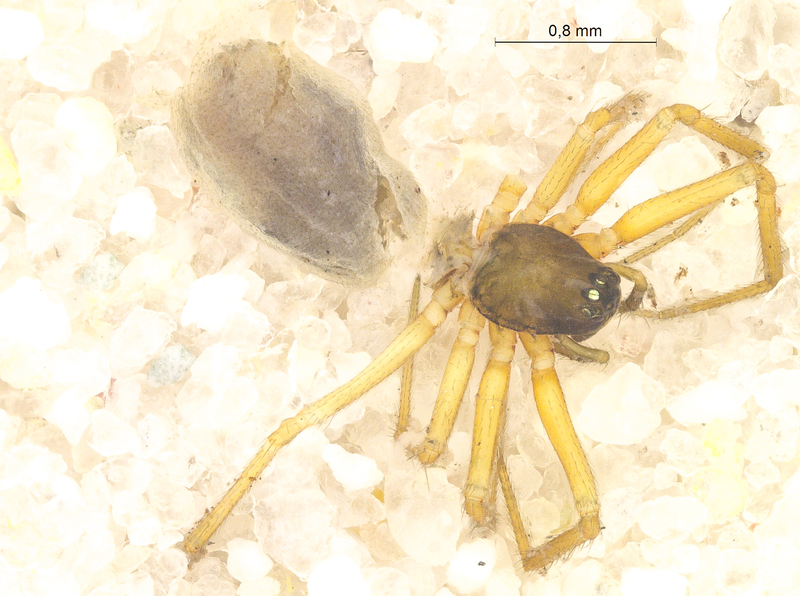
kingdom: Animalia
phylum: Arthropoda
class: Arachnida
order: Araneae
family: Linyphiidae
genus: Agyneta
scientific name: Agyneta rurestris
